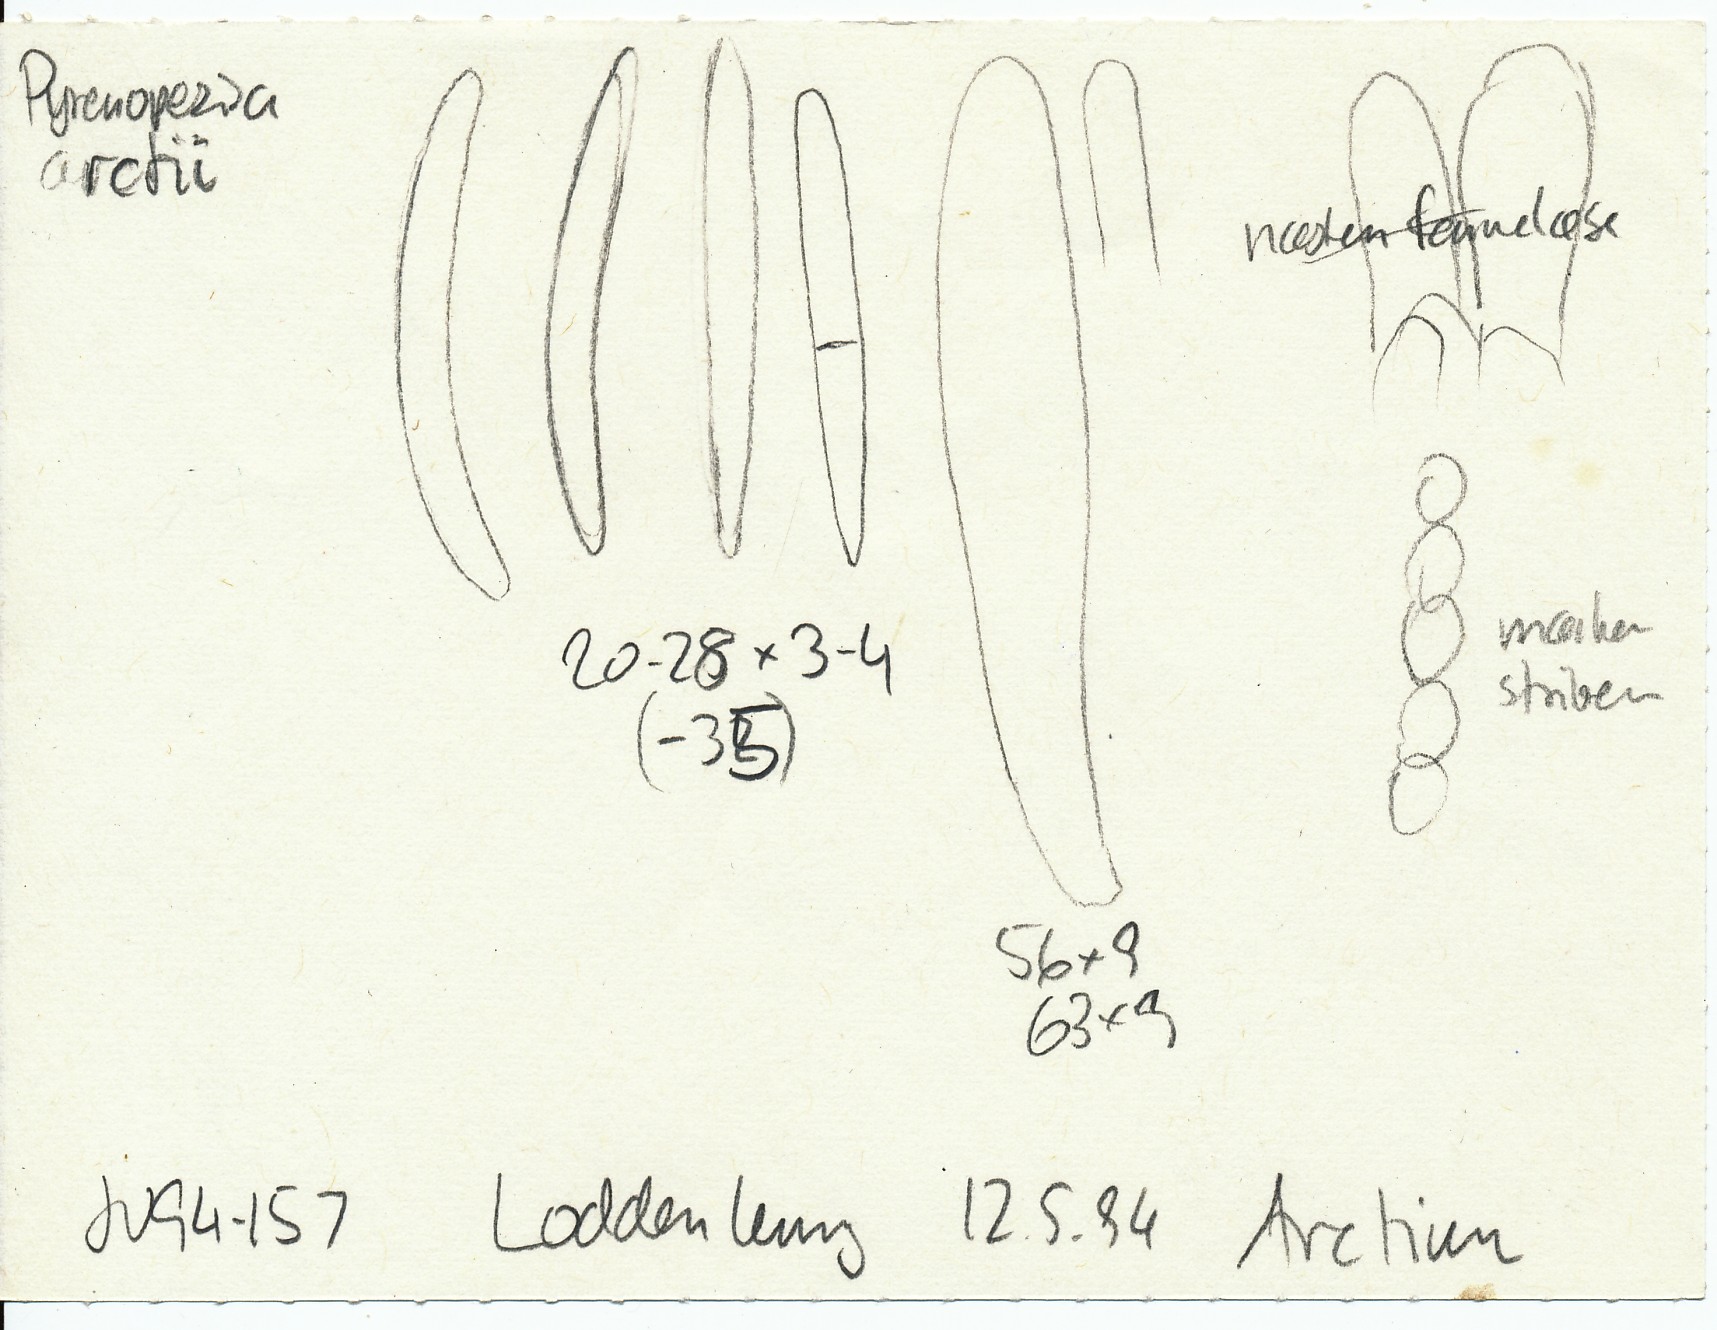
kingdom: Fungi
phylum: Ascomycota
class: Leotiomycetes
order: Helotiales
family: Ploettnerulaceae
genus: Pyrenopeziza
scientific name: Pyrenopeziza arctii
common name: burre-kerneskive
